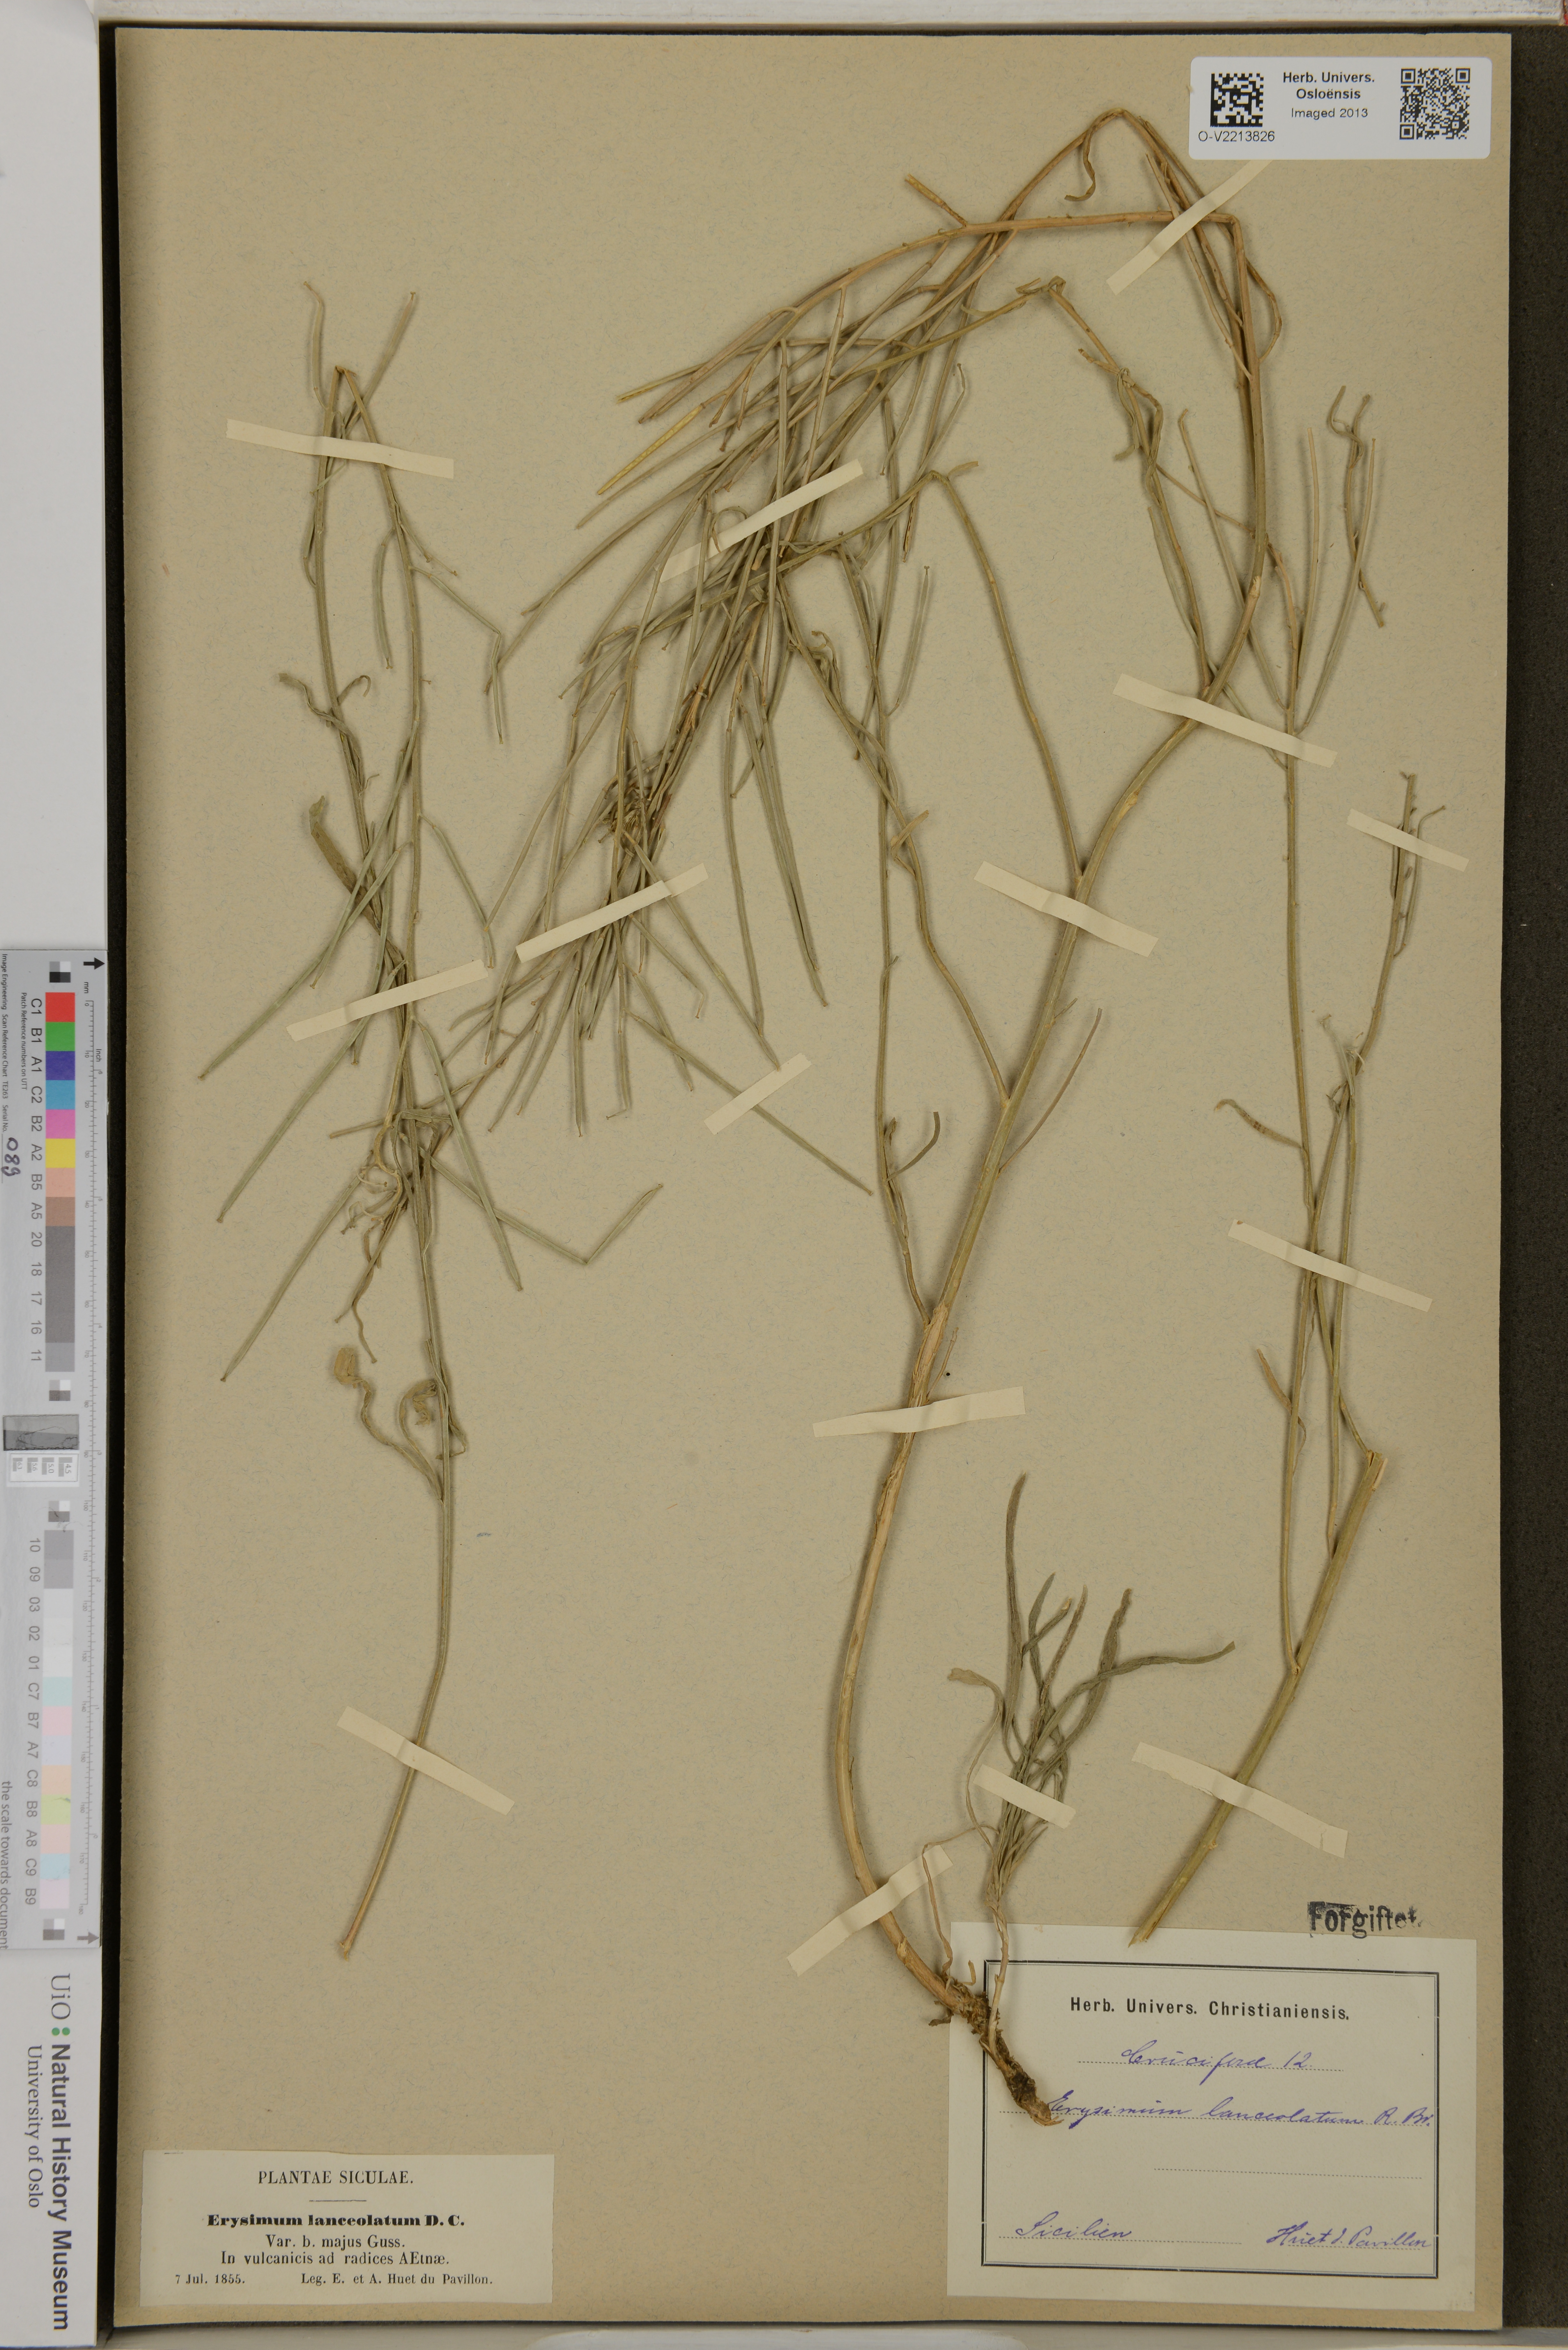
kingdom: Plantae
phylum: Tracheophyta
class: Magnoliopsida
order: Brassicales
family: Brassicaceae
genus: Erysimum
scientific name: Erysimum lanceolatum
